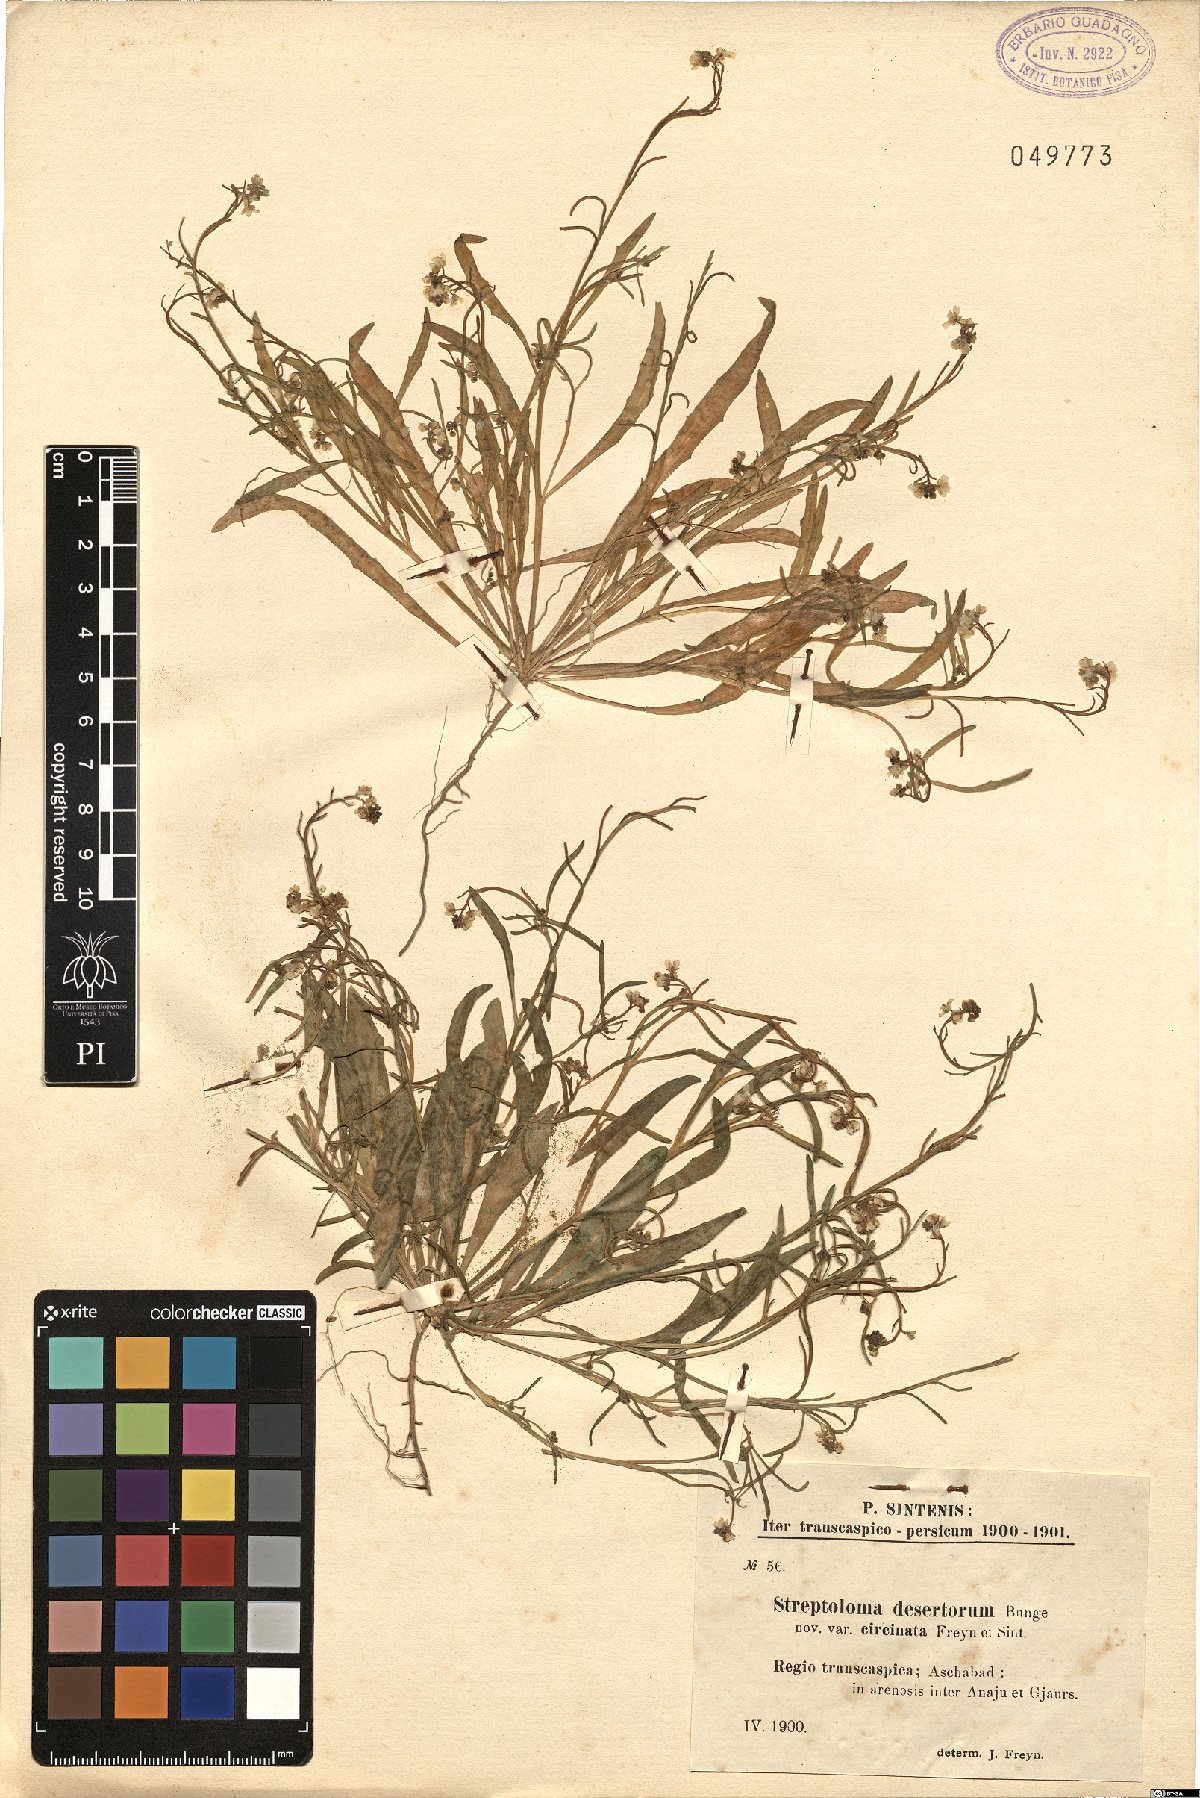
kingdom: Plantae
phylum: Tracheophyta
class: Magnoliopsida
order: Brassicales
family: Brassicaceae
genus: Streptoloma
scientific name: Streptoloma desertorum
